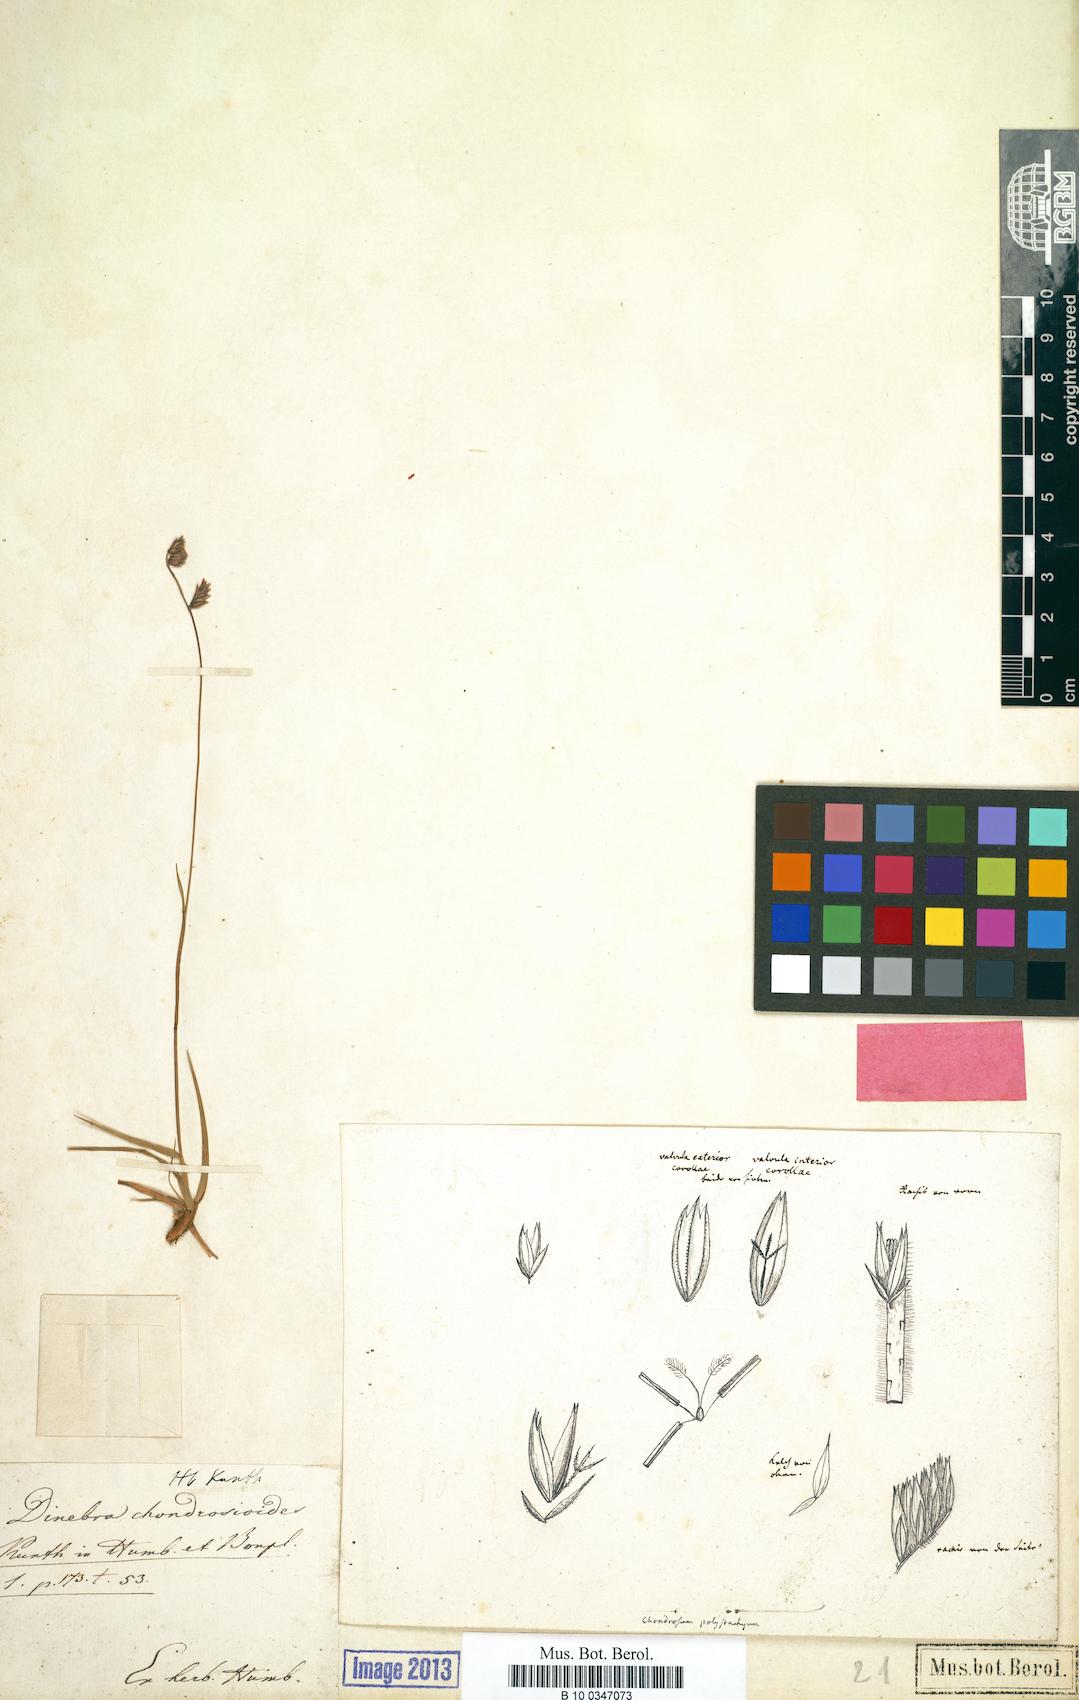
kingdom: Plantae
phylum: Tracheophyta
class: Liliopsida
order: Poales
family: Poaceae
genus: Bouteloua
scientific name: Bouteloua chondrosioides
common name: Sprucetop grama
